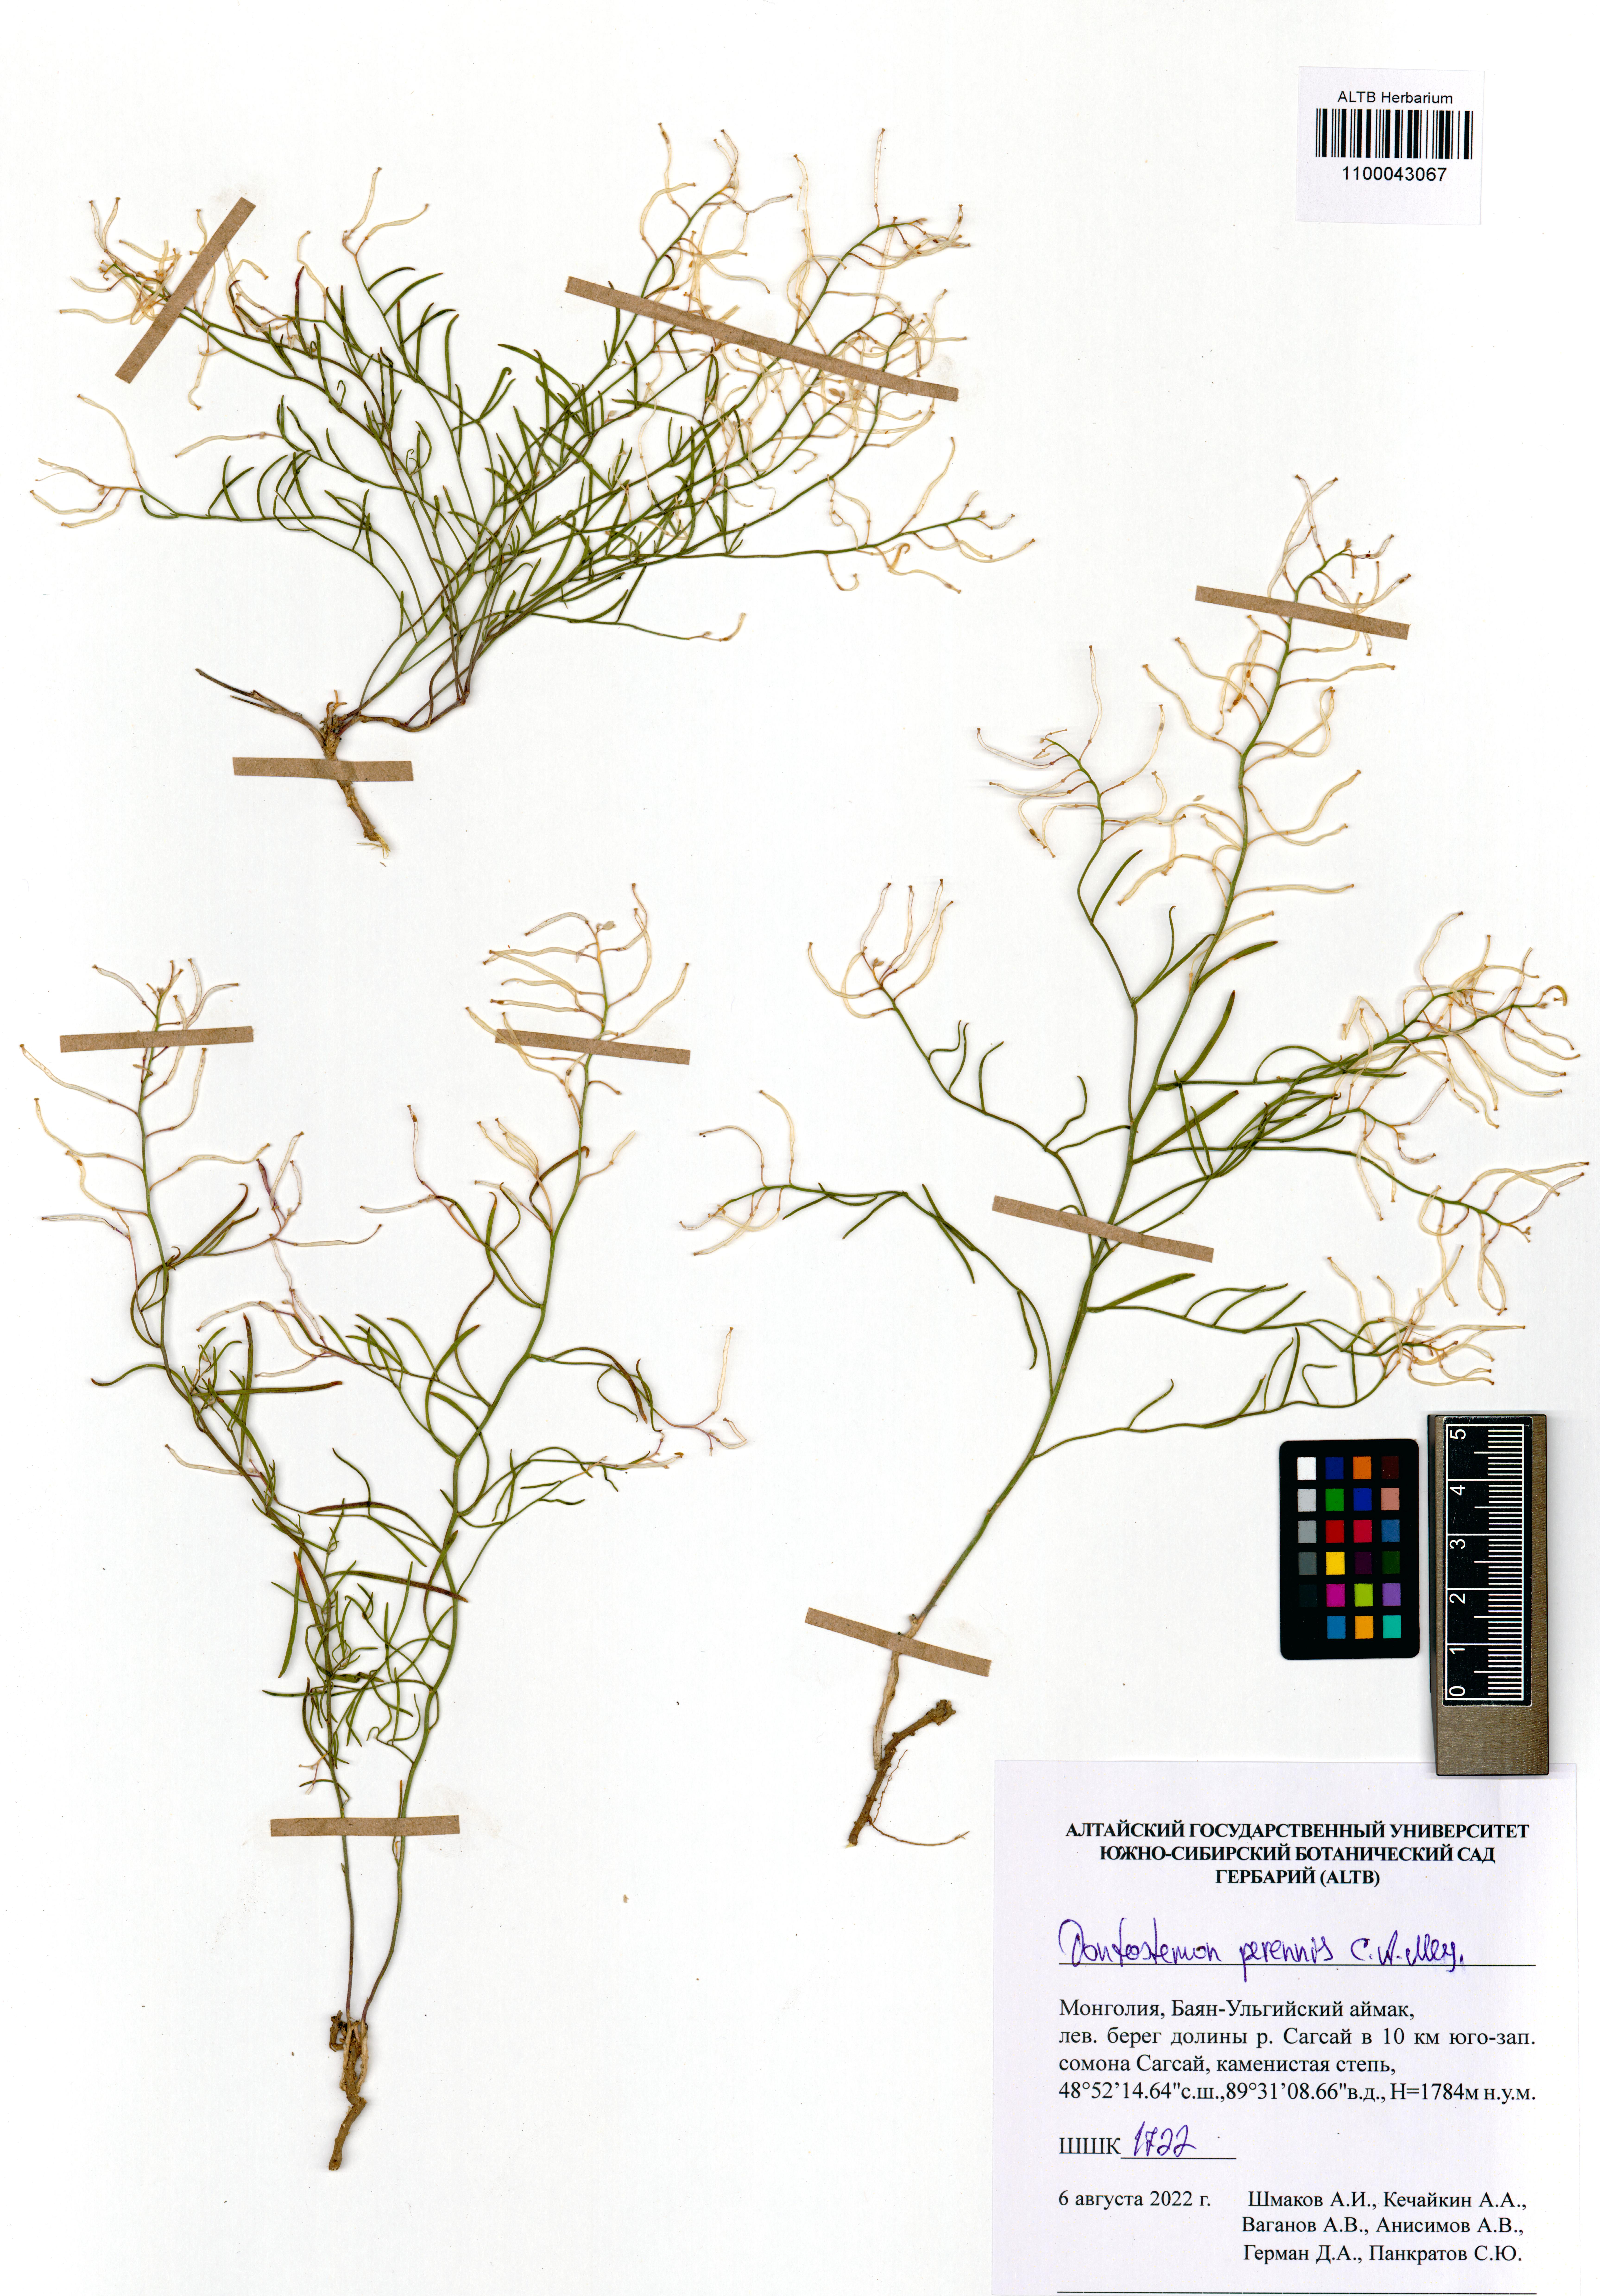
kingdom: Plantae
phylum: Tracheophyta
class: Magnoliopsida
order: Brassicales
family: Brassicaceae
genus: Dontostemon
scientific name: Dontostemon perennis
